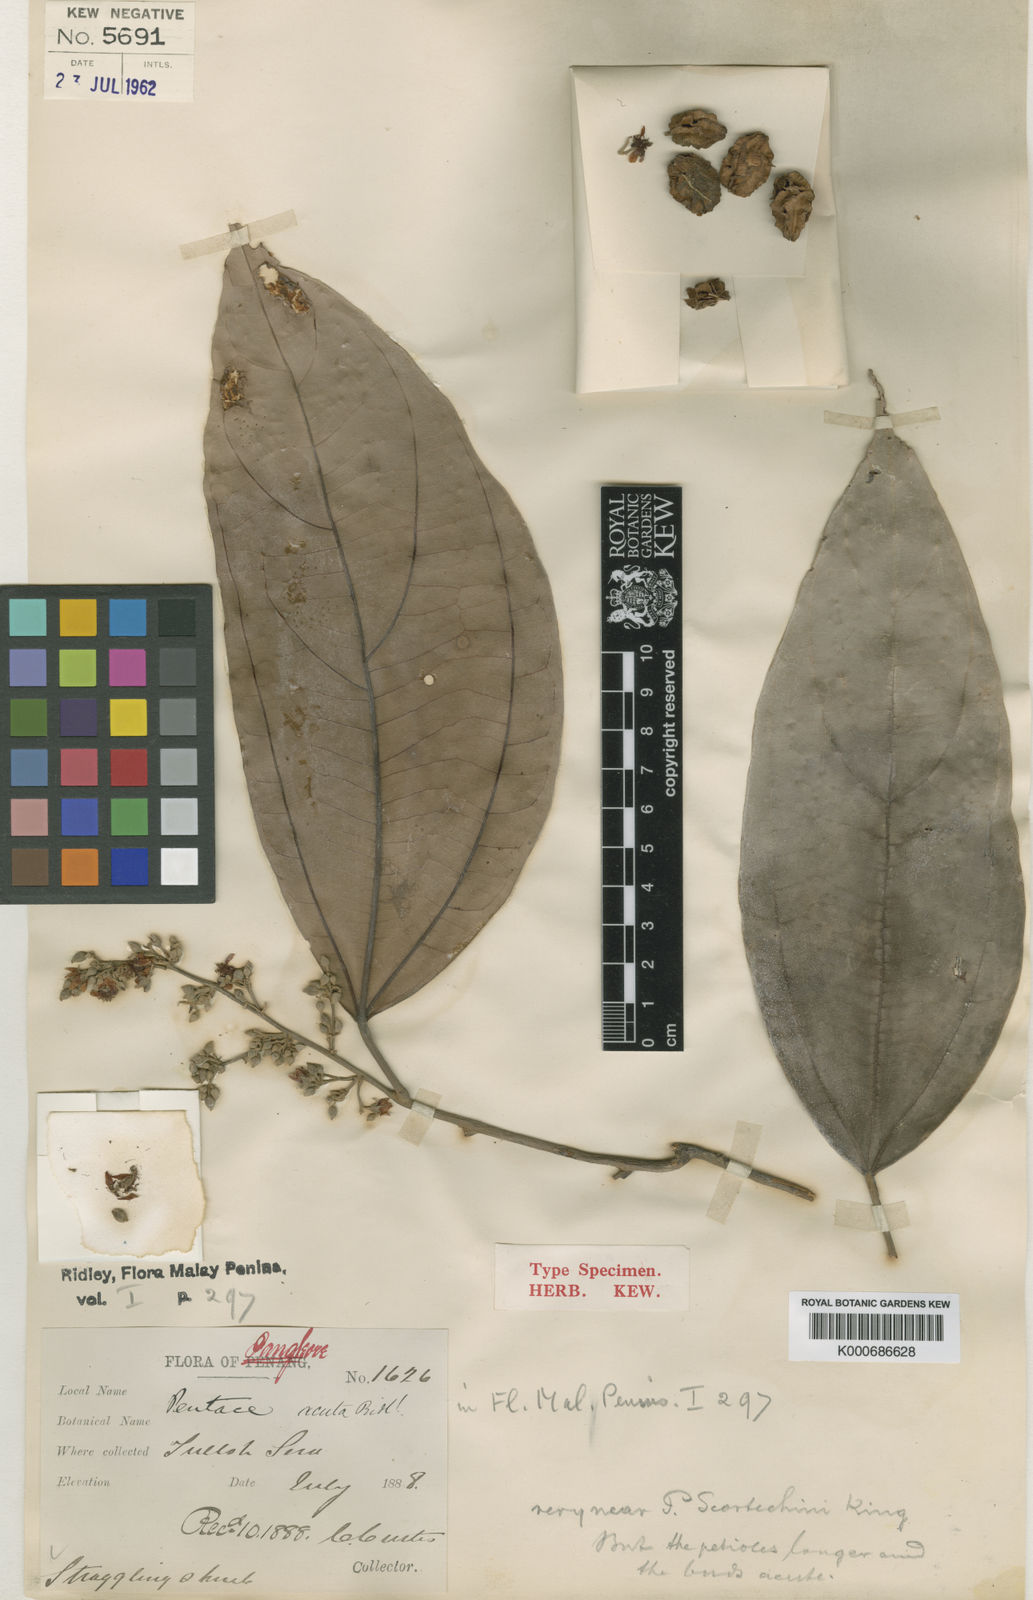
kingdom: Plantae
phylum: Tracheophyta
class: Magnoliopsida
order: Malvales
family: Malvaceae
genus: Diplodiscus
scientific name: Diplodiscus scortechinii
